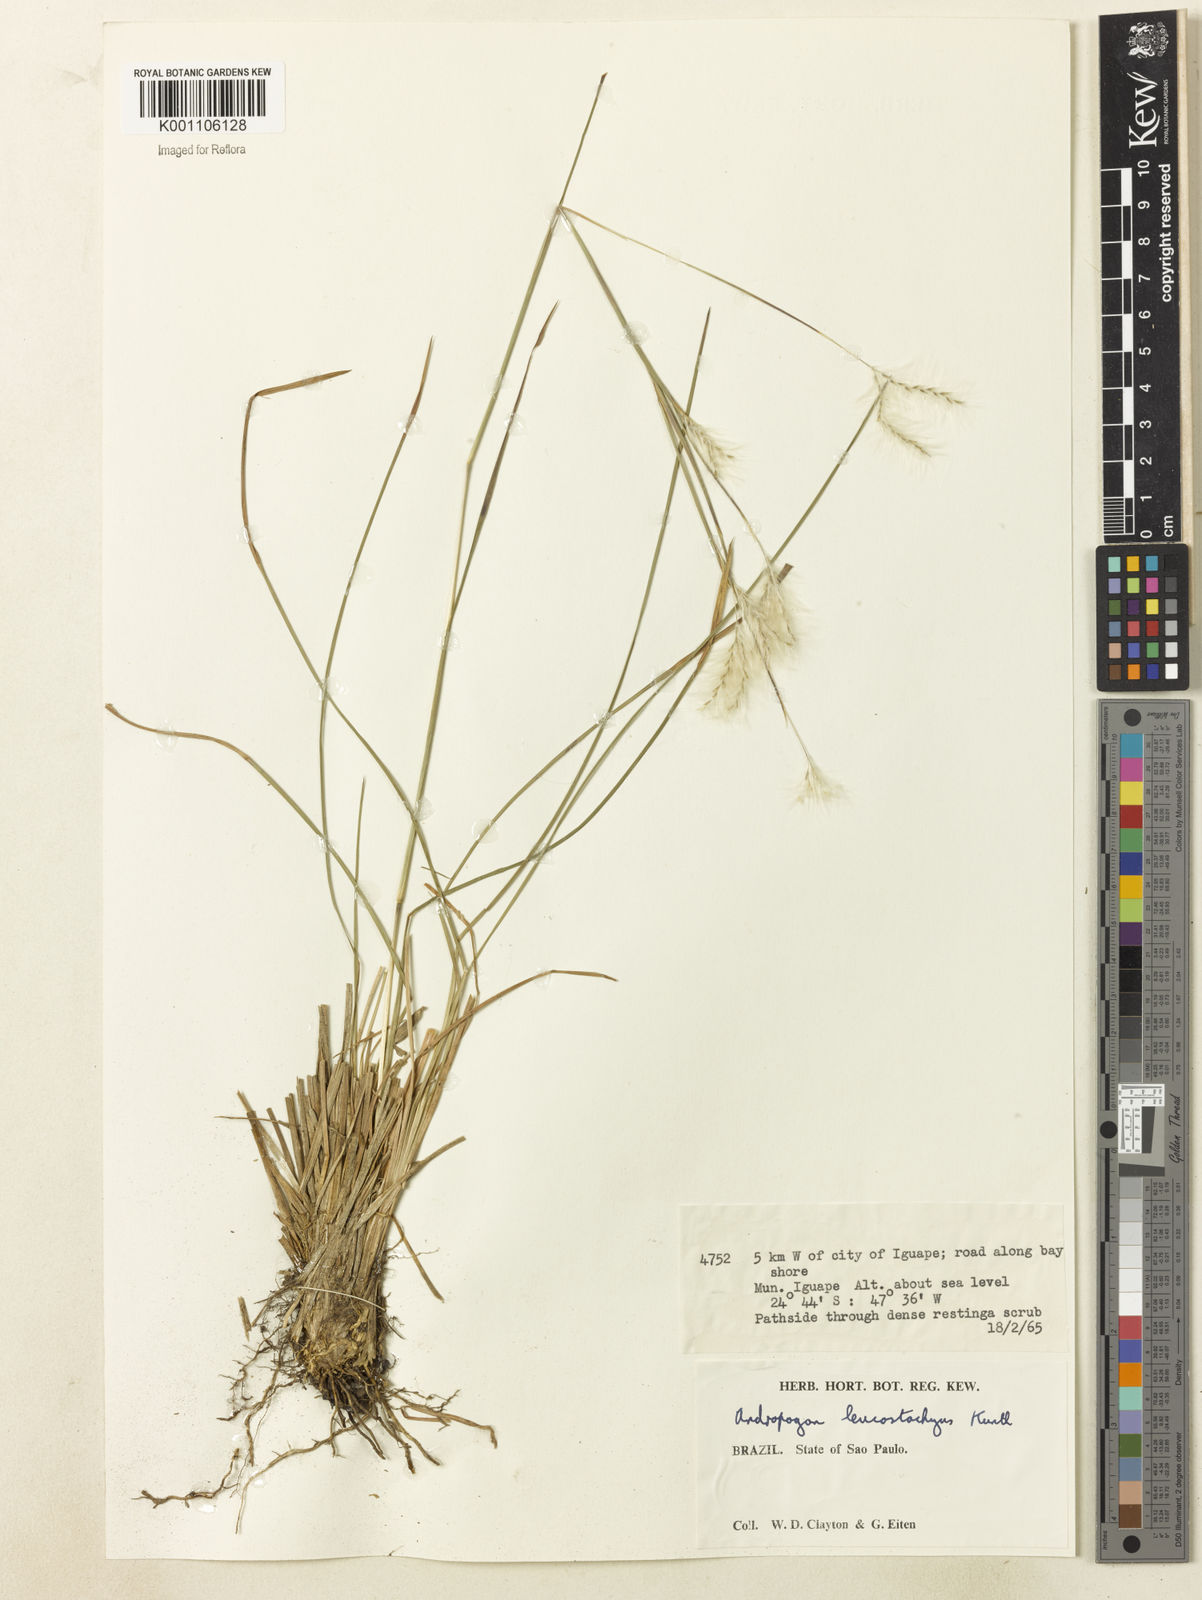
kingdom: Plantae
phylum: Tracheophyta
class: Liliopsida
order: Poales
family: Poaceae
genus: Andropogon
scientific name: Andropogon leucostachyus
